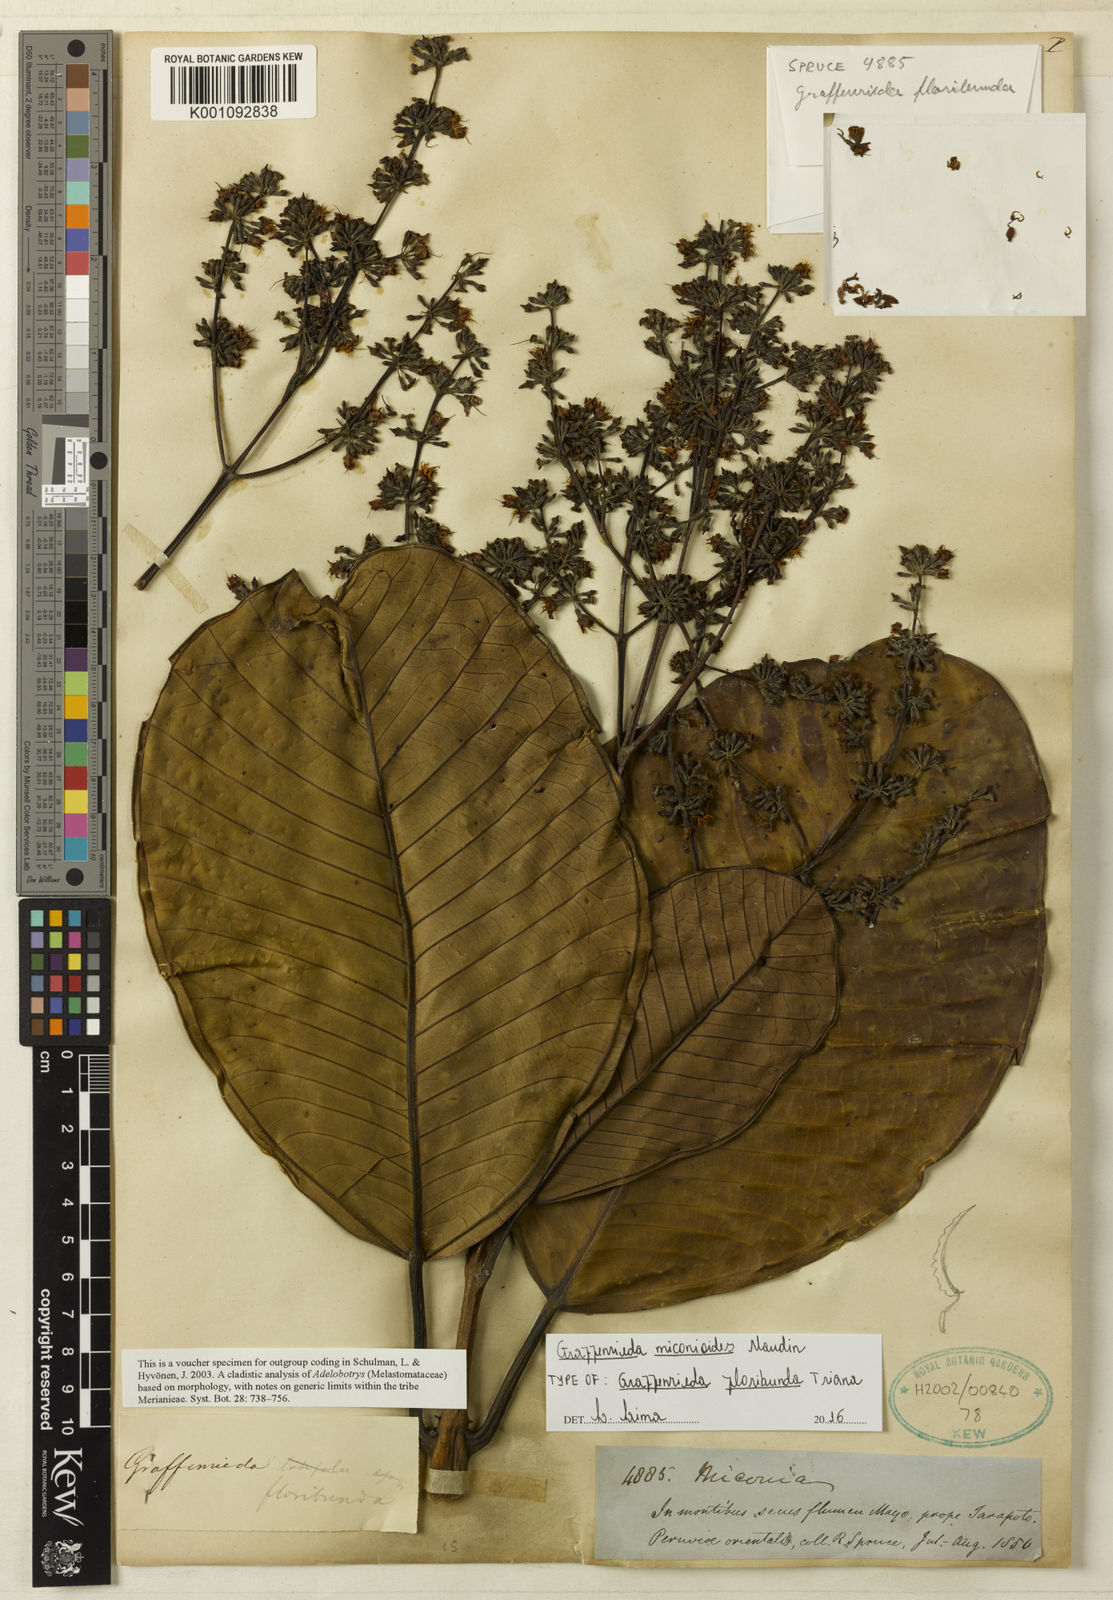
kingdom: Plantae
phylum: Tracheophyta
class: Magnoliopsida
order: Myrtales
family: Melastomataceae
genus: Graffenrieda
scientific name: Graffenrieda miconioides
